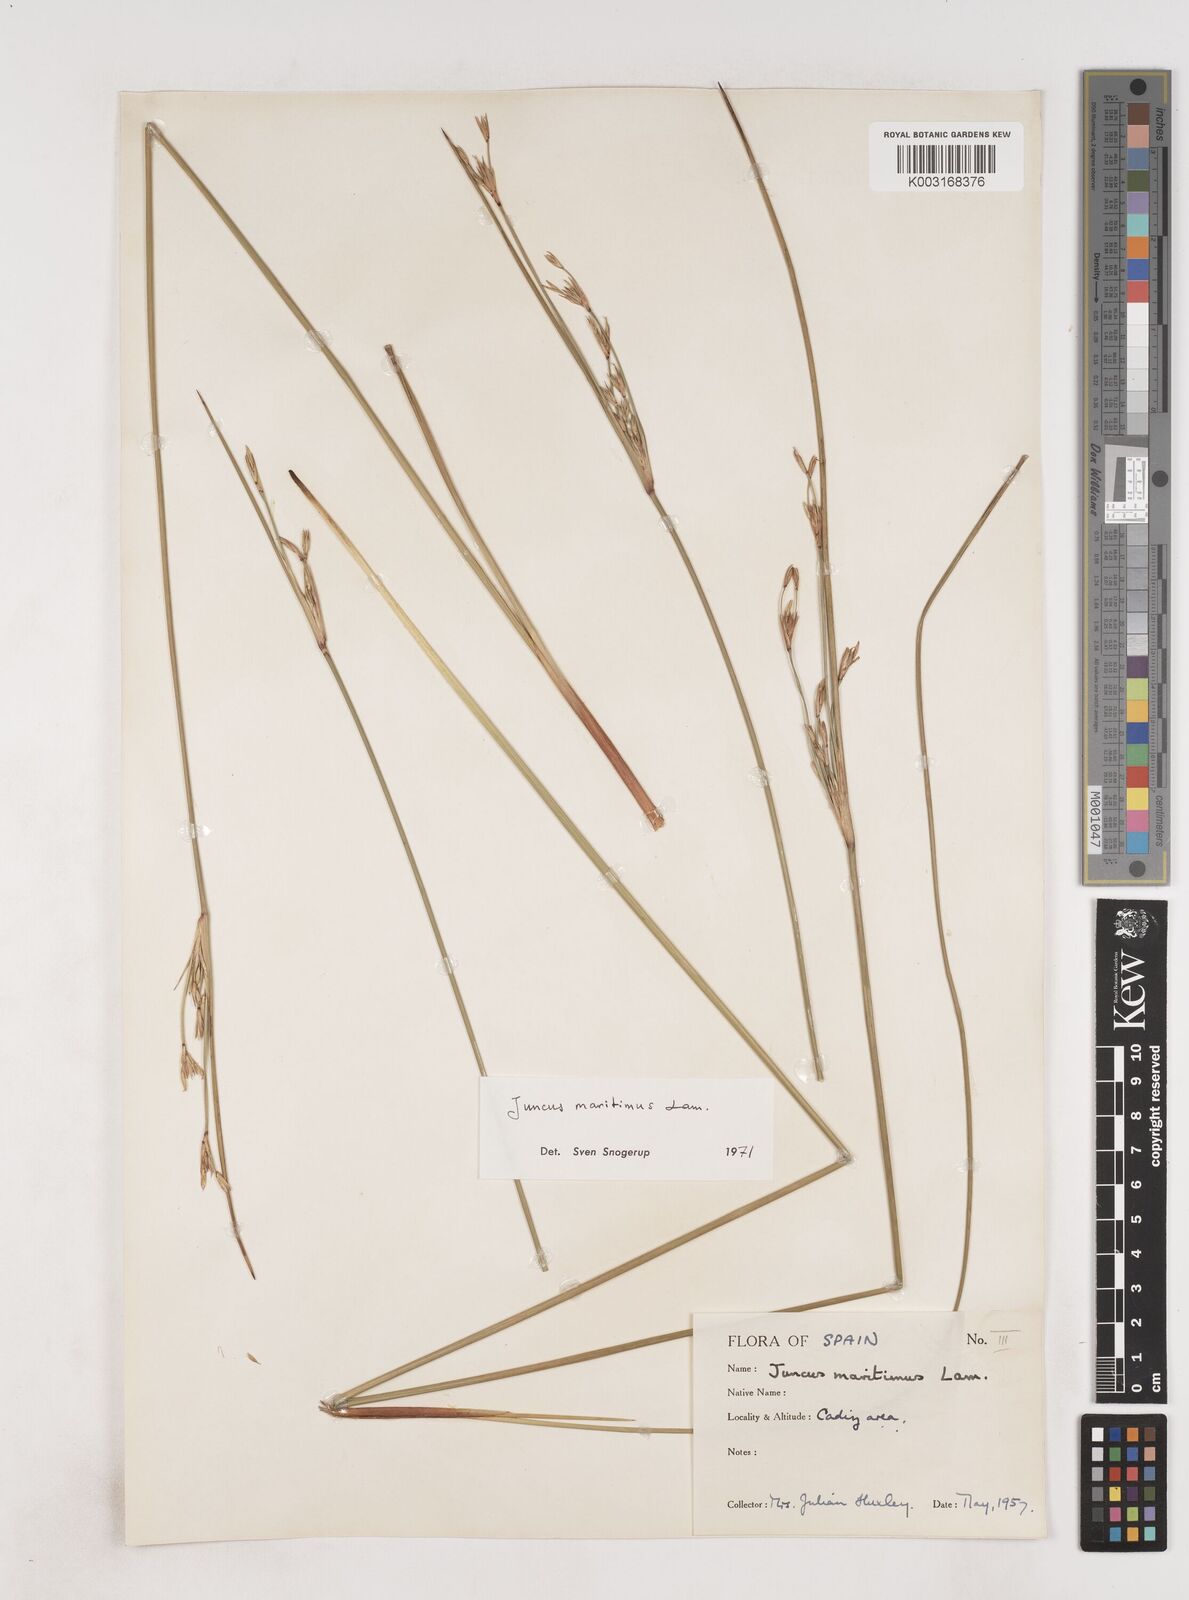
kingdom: Plantae
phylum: Tracheophyta
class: Liliopsida
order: Poales
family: Juncaceae
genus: Luzula
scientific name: Luzula sylvatica
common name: Great wood-rush
